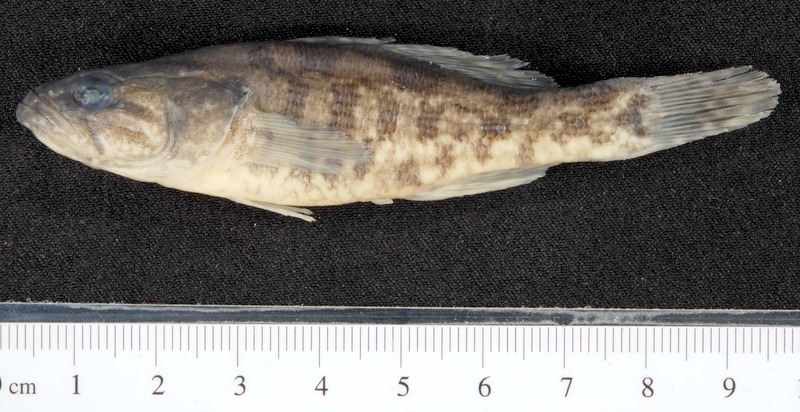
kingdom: Animalia
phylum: Chordata
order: Perciformes
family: Odontobutidae
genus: Perccottus
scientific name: Perccottus glenii
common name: Amur sleeper
